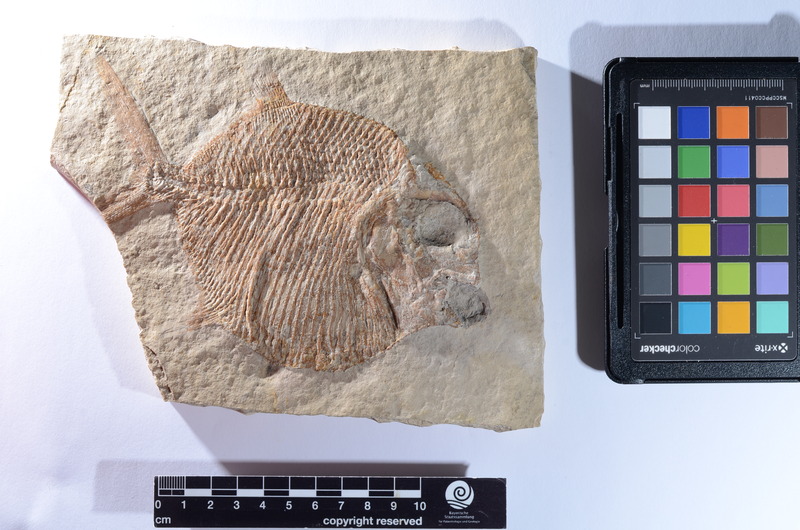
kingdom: Animalia
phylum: Chordata
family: Gyrodontidae
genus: Gyrodus
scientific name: Gyrodus hexagonus
